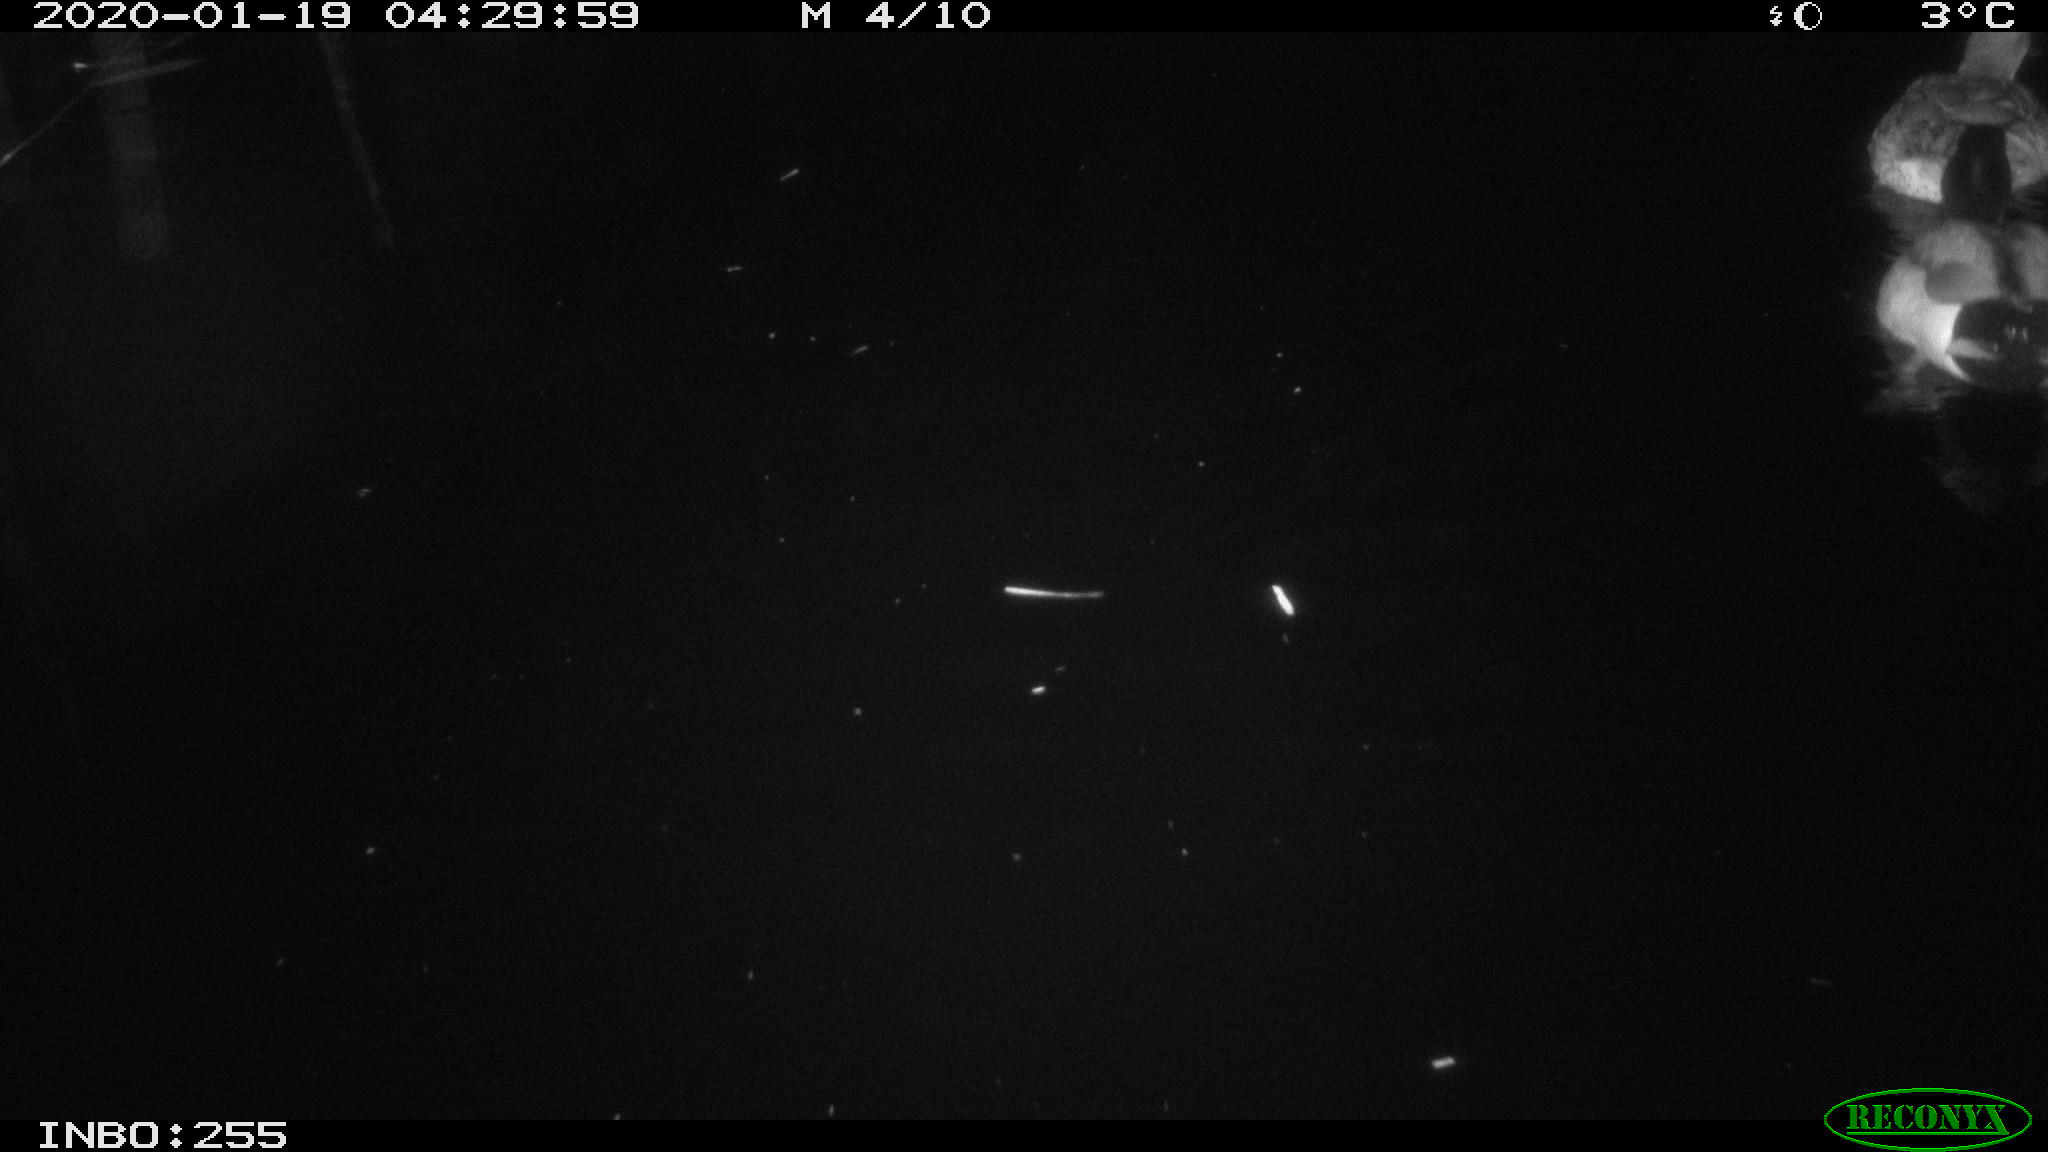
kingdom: Animalia
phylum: Chordata
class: Aves
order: Anseriformes
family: Anatidae
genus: Anas
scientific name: Anas platyrhynchos
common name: Mallard
